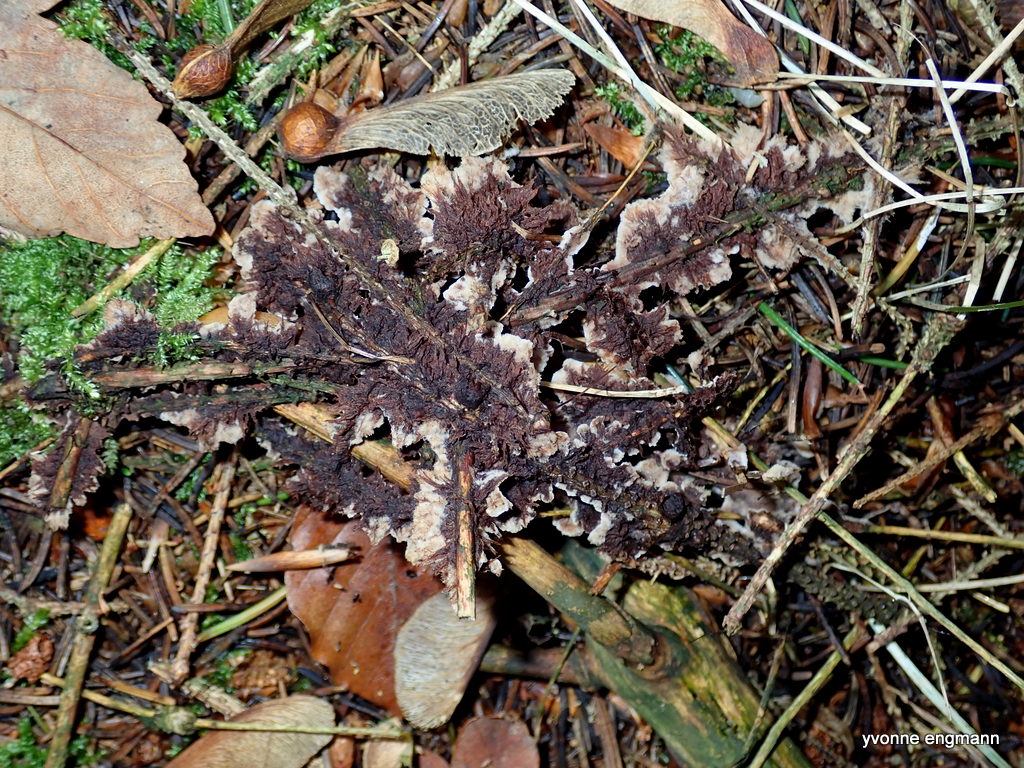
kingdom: Fungi
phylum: Basidiomycota
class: Agaricomycetes
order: Thelephorales
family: Thelephoraceae
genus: Thelephora
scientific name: Thelephora terrestris
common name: fliget frynsesvamp
